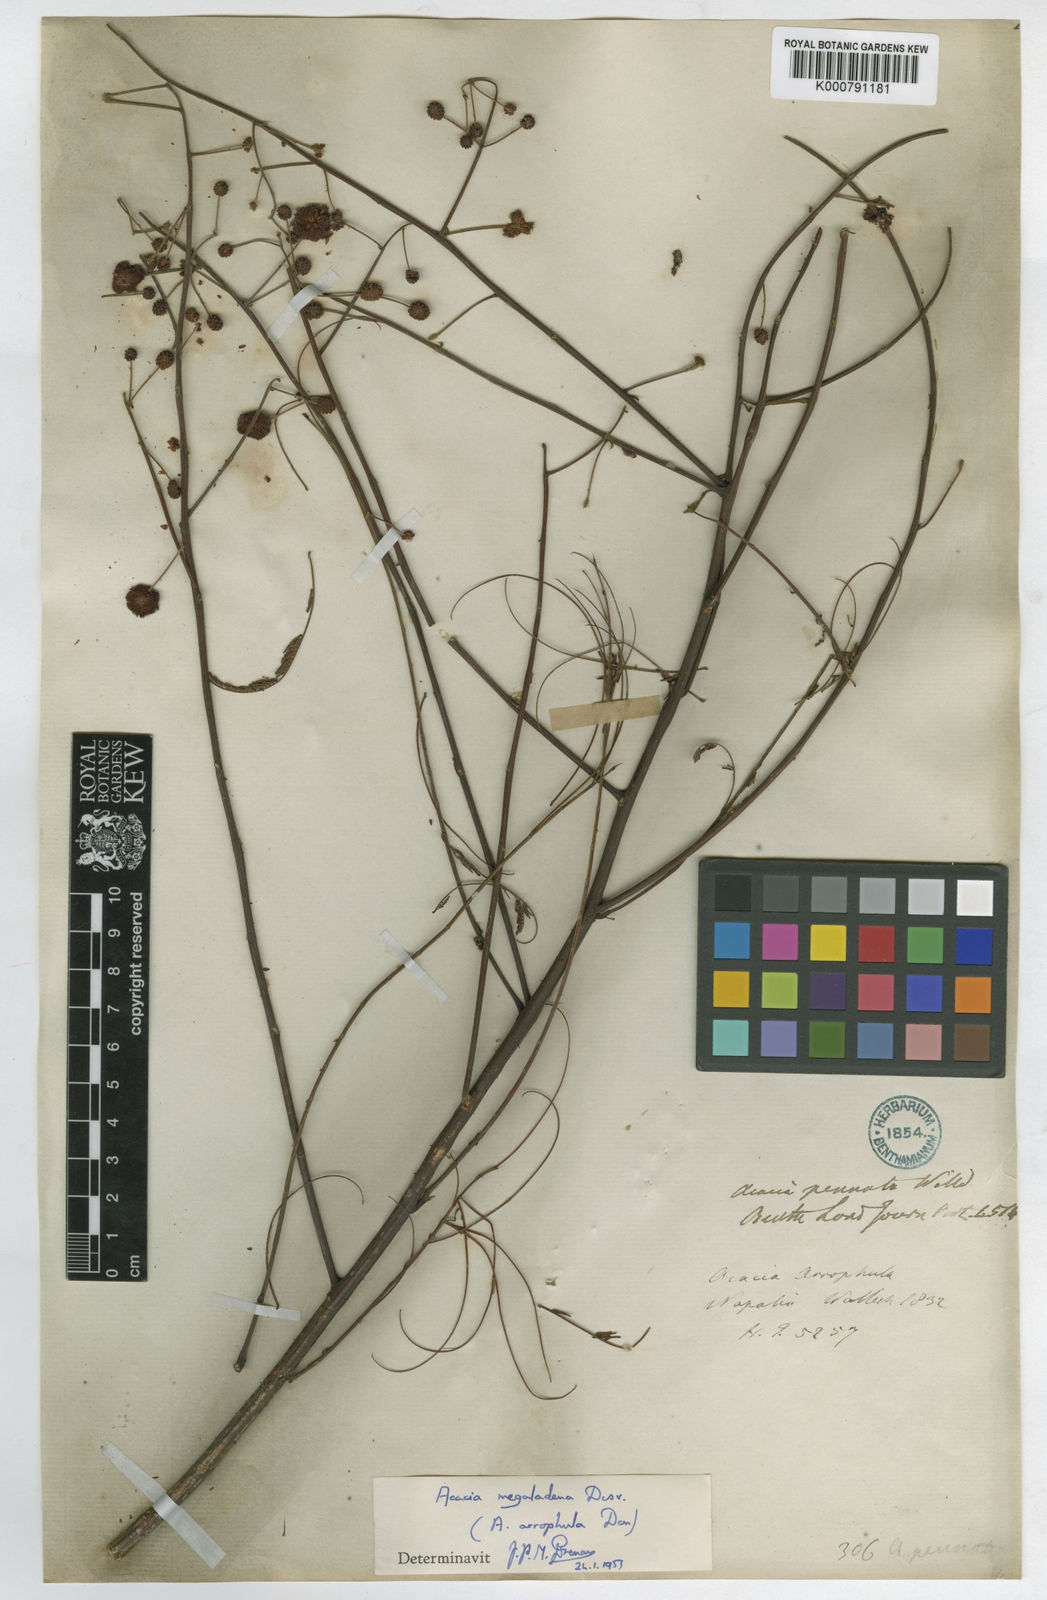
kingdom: Plantae
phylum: Tracheophyta
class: Magnoliopsida
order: Fabales
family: Fabaceae
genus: Senegalia
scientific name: Senegalia megaladena
